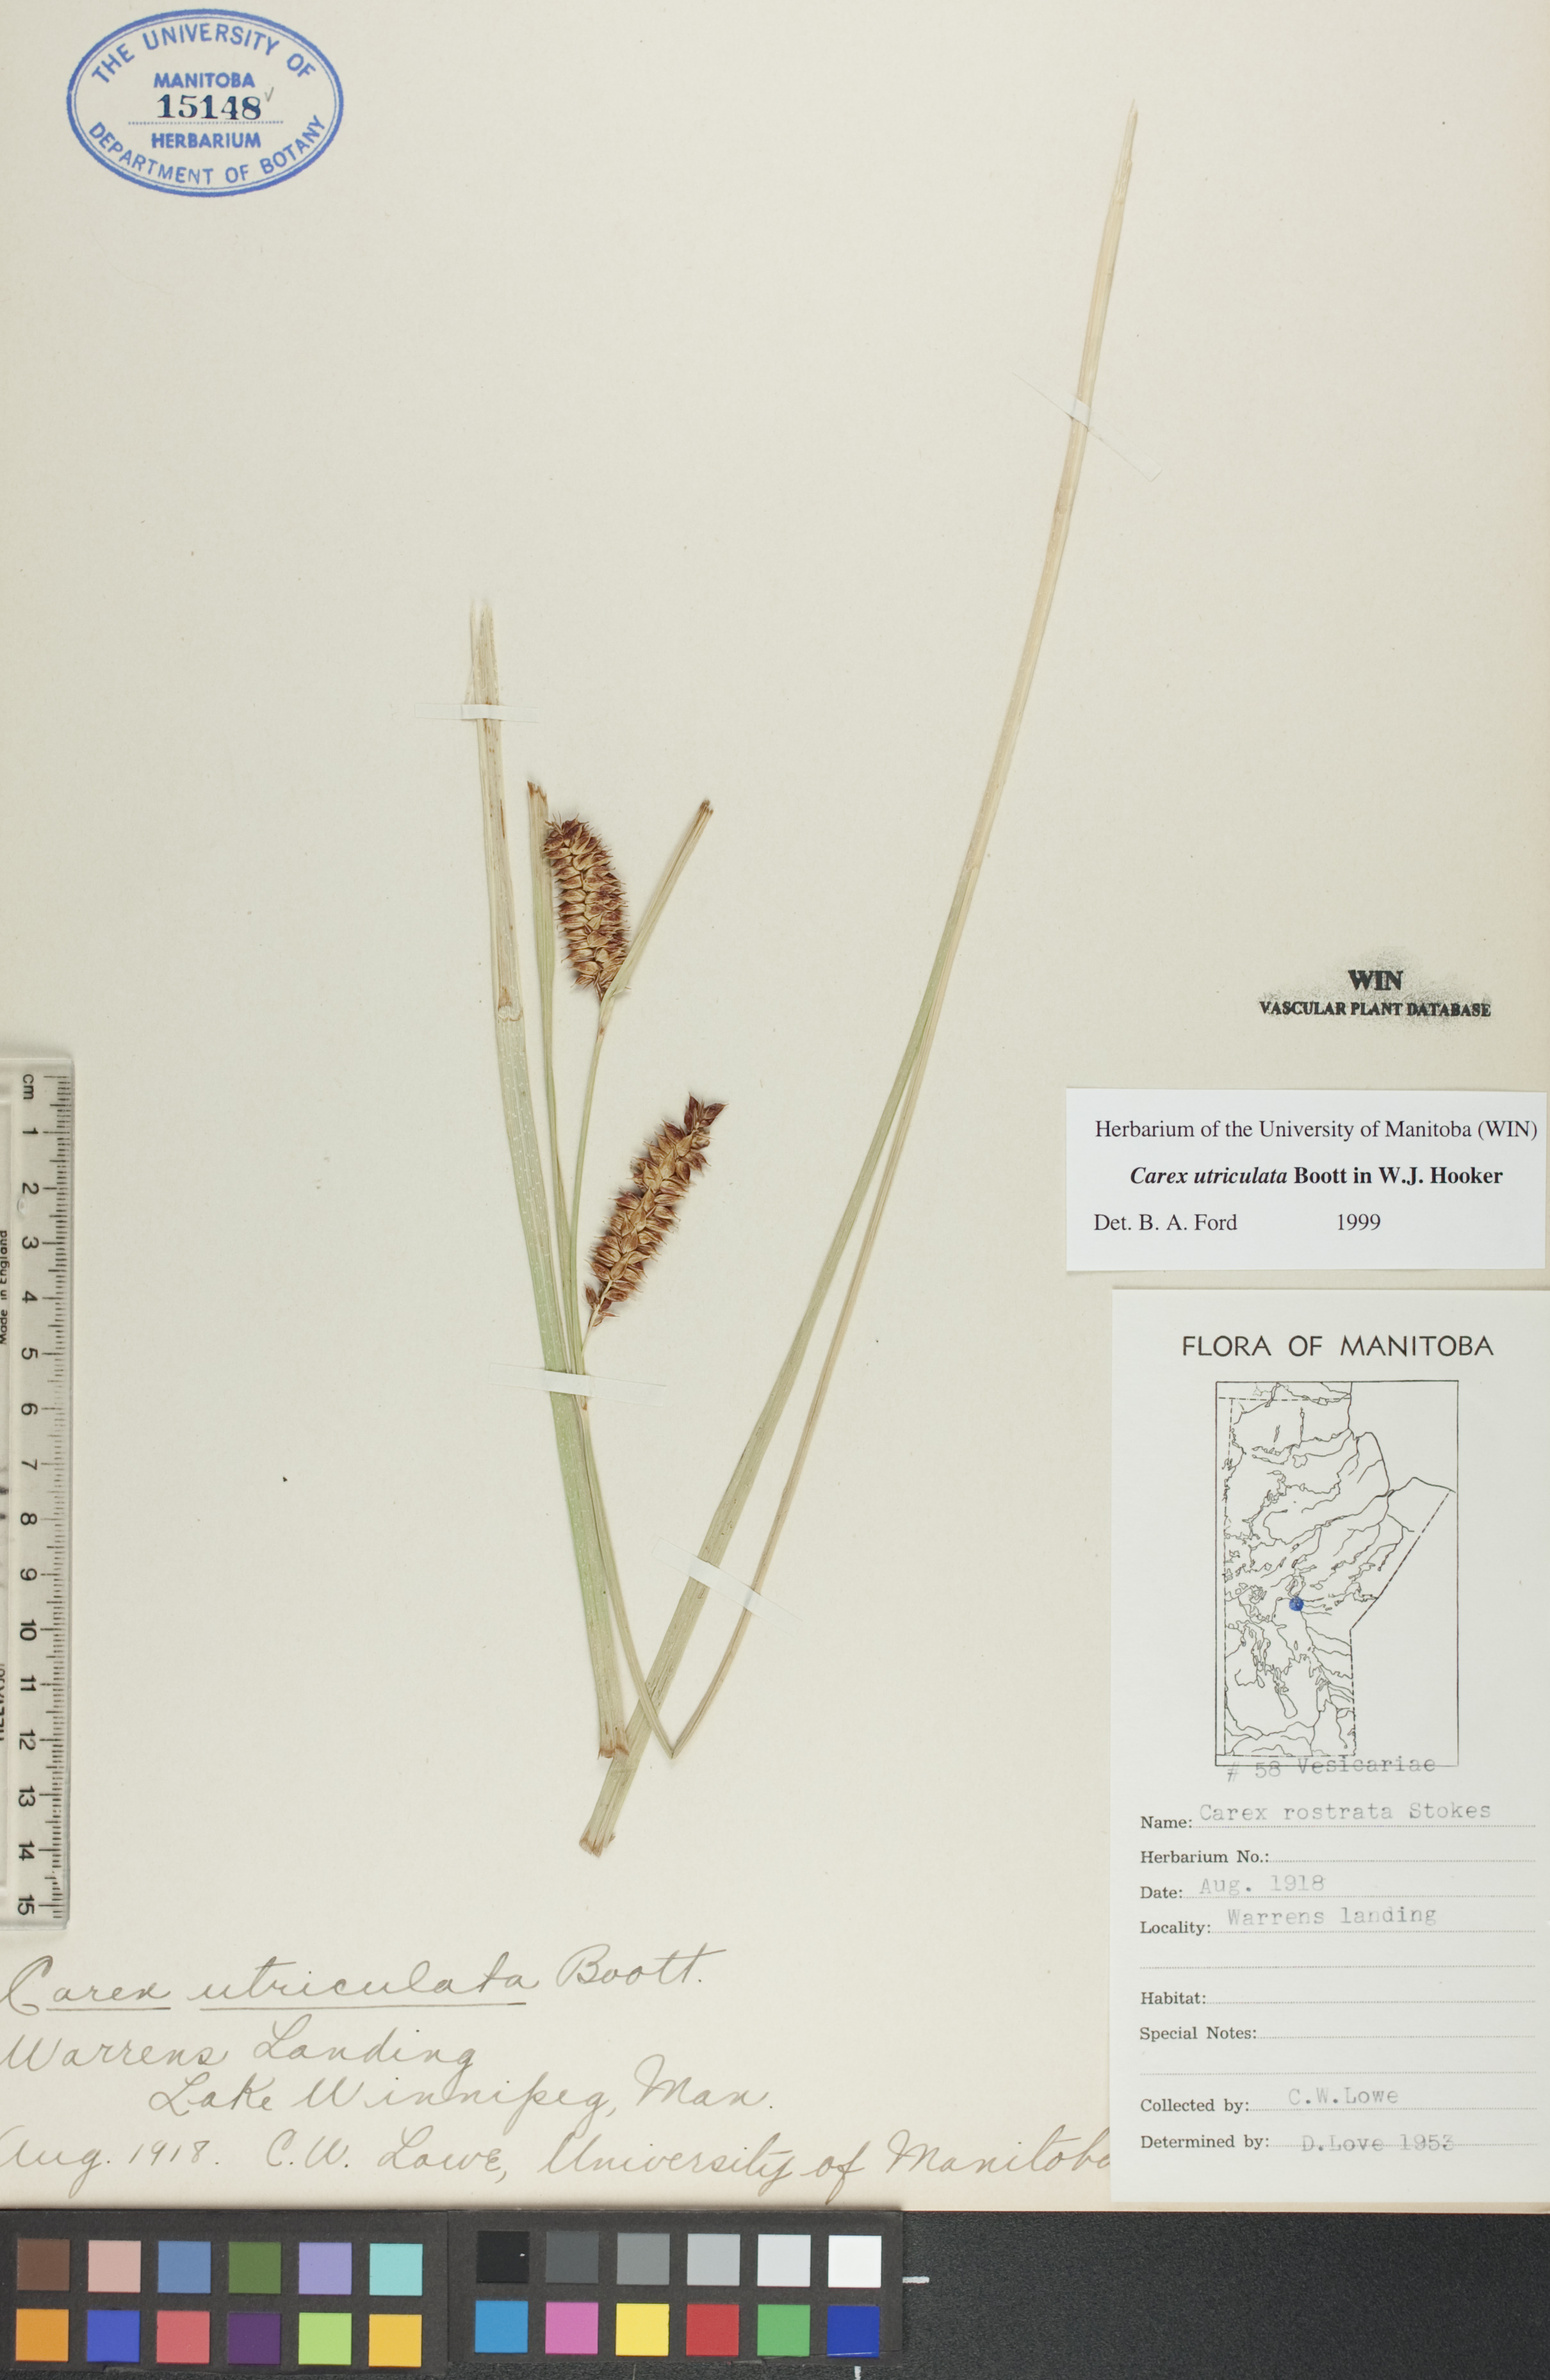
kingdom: Plantae
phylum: Tracheophyta
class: Liliopsida
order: Poales
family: Cyperaceae
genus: Carex
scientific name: Carex utriculata
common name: Beaked sedge
